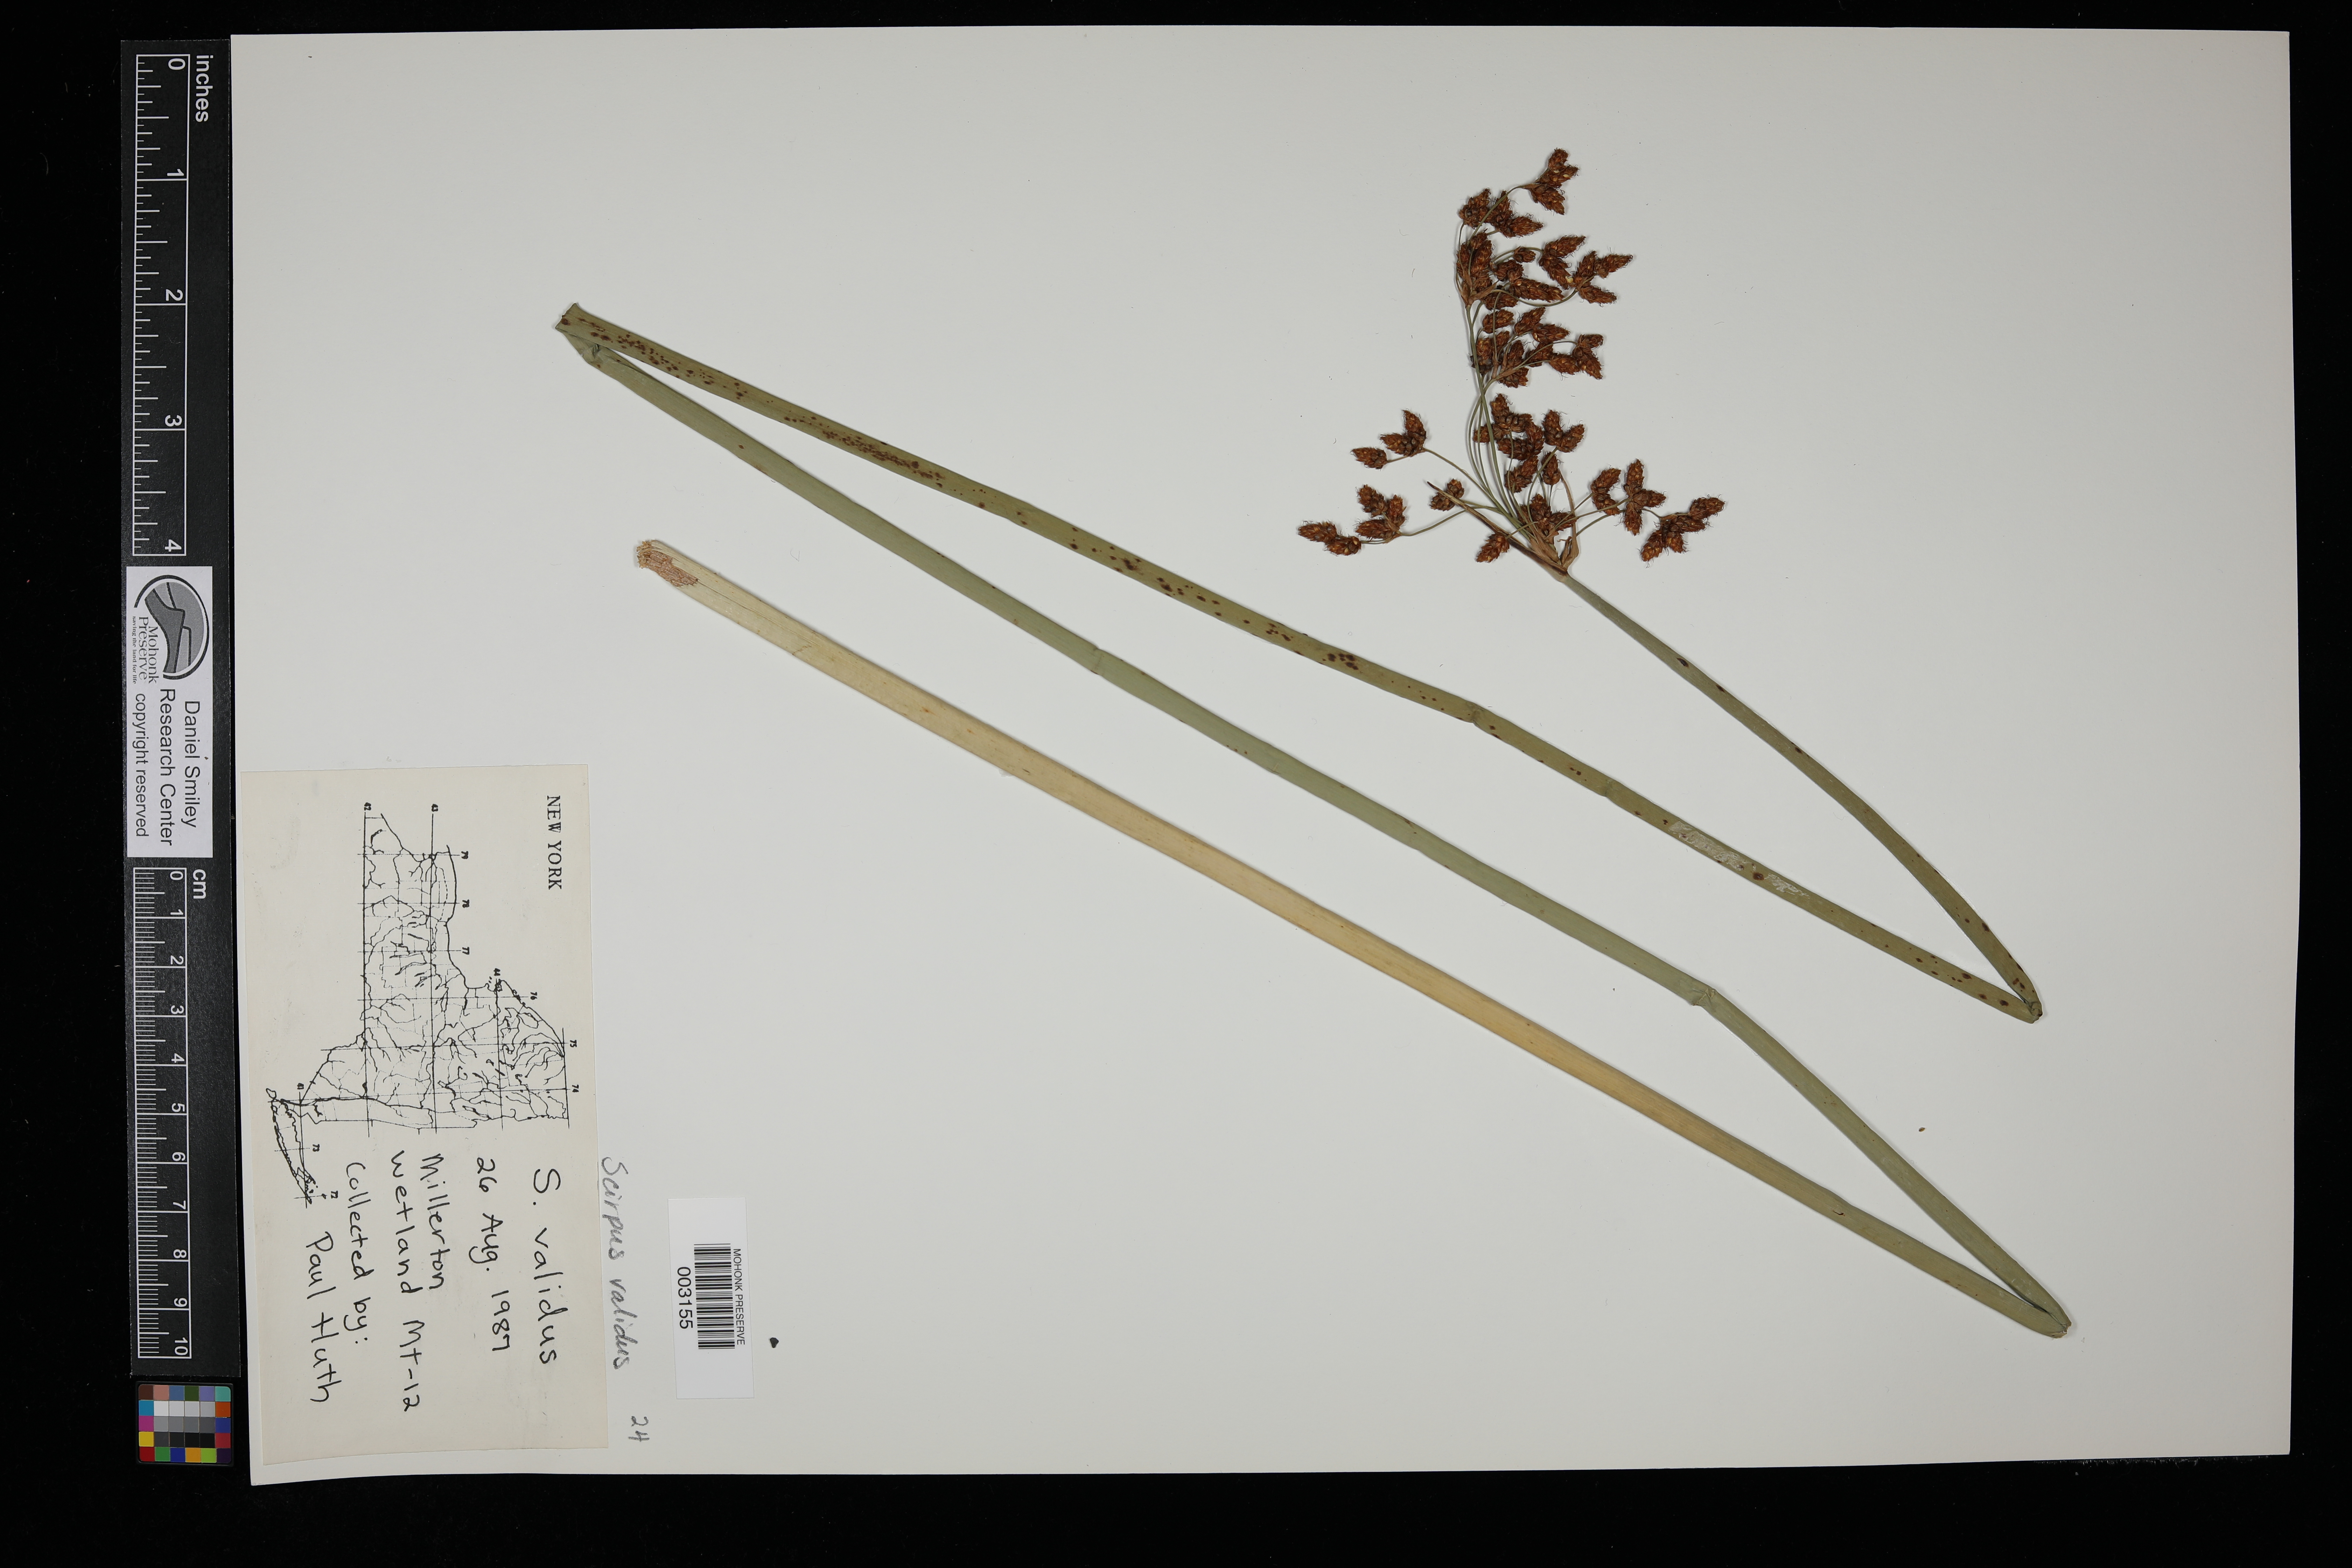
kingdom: Plantae
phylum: Tracheophyta
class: Liliopsida
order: Poales
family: Cyperaceae
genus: Eleocharis
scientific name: Eleocharis geniculata
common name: Canada spikesedge
